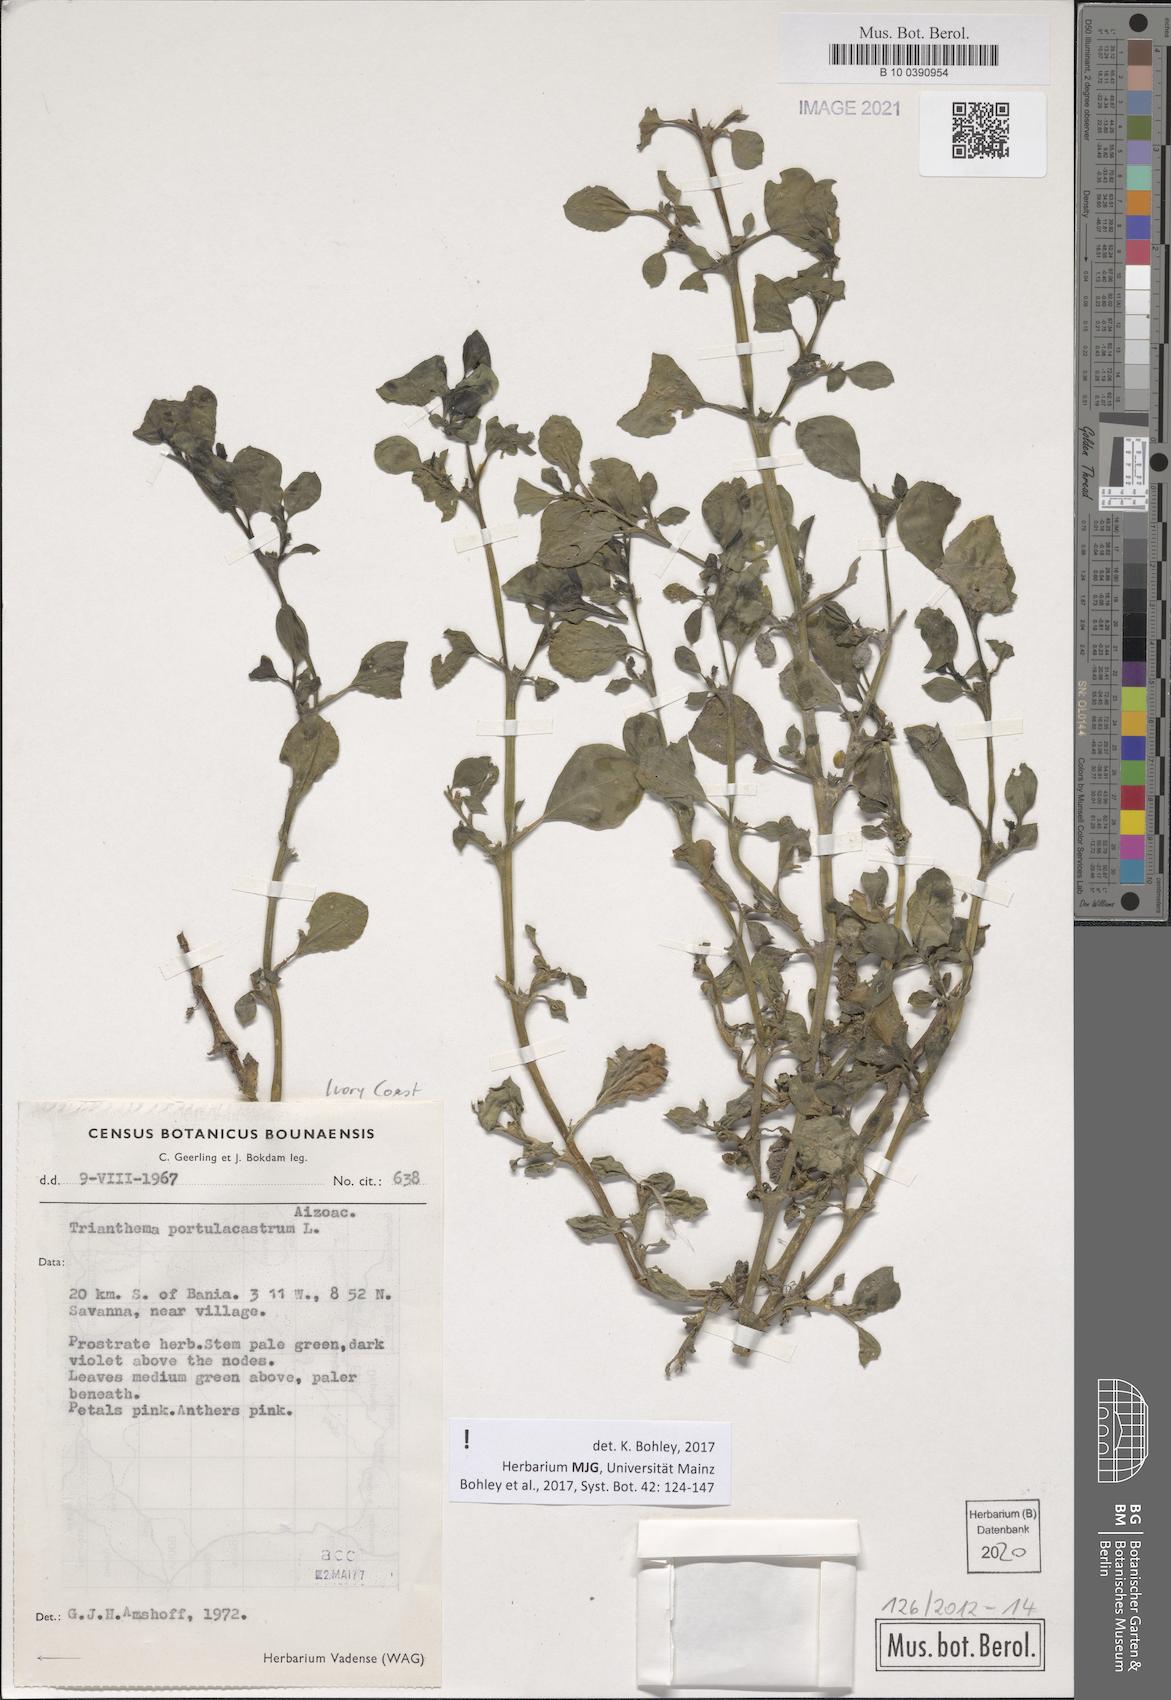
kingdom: Plantae
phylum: Tracheophyta
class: Magnoliopsida
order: Caryophyllales
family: Aizoaceae
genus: Trianthema
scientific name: Trianthema portulacastrum
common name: Desert horsepurslane
